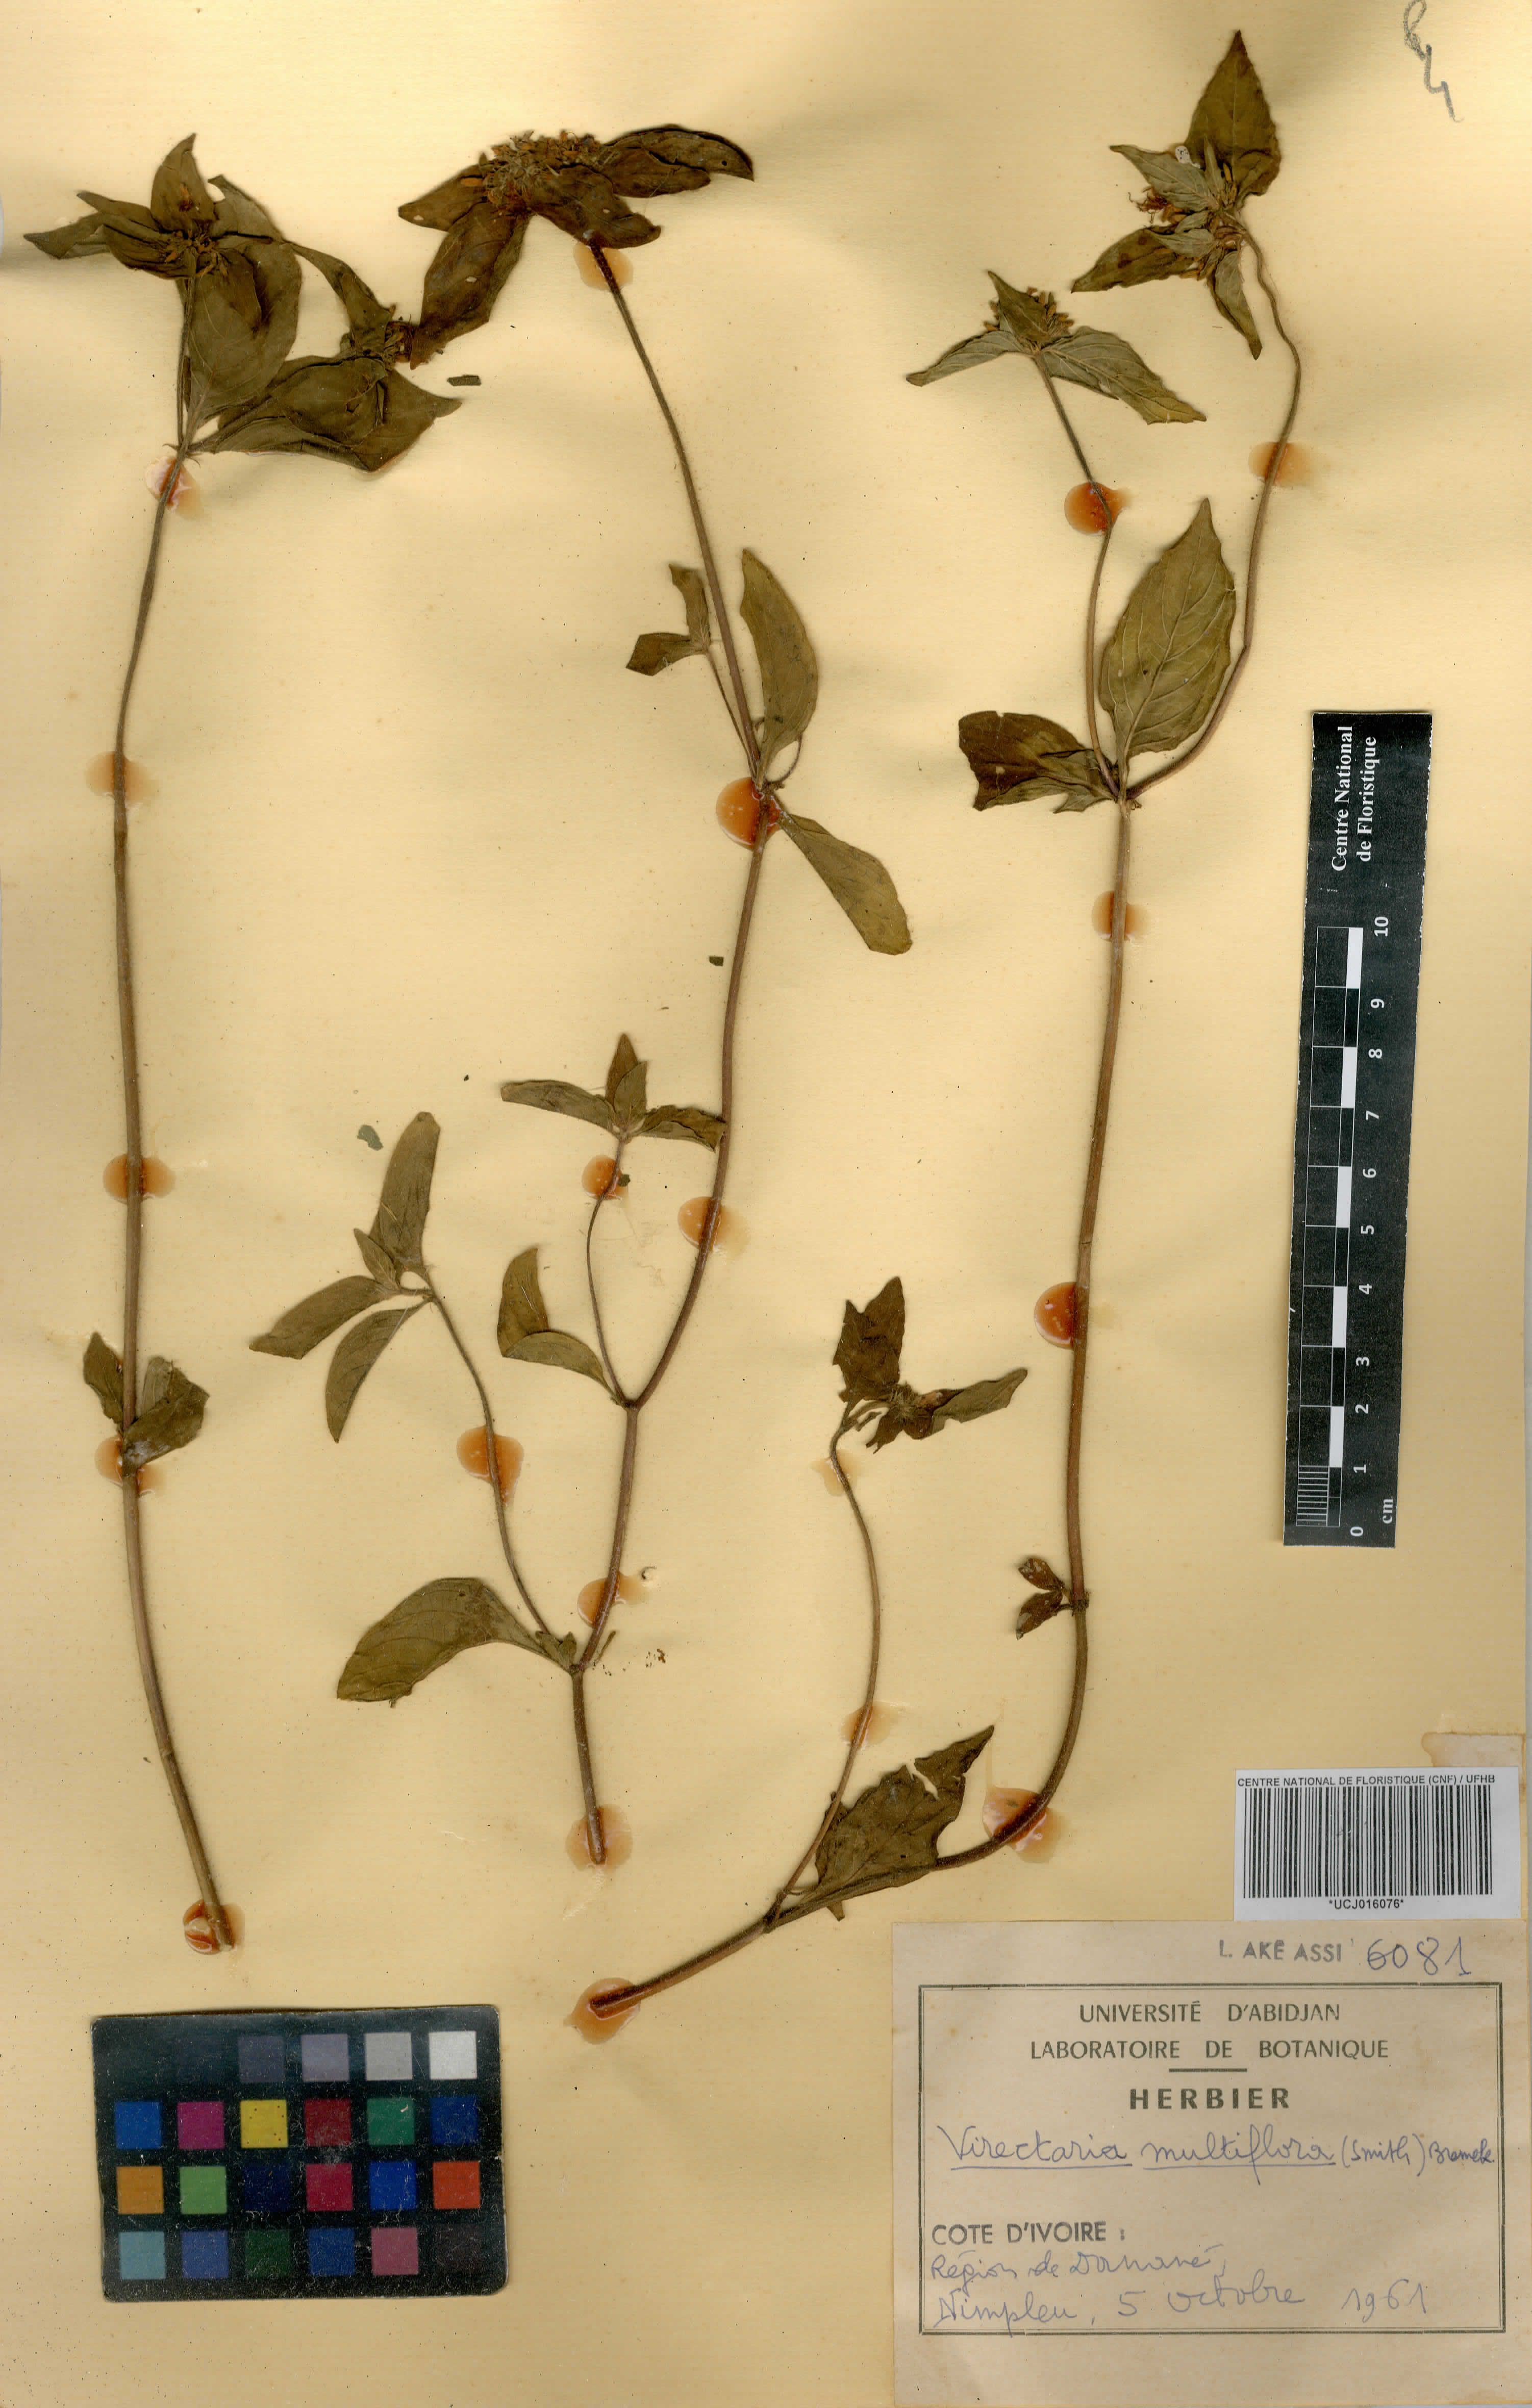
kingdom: Plantae
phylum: Tracheophyta
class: Magnoliopsida
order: Gentianales
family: Rubiaceae
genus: Virectaria
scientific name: Virectaria multiflora
